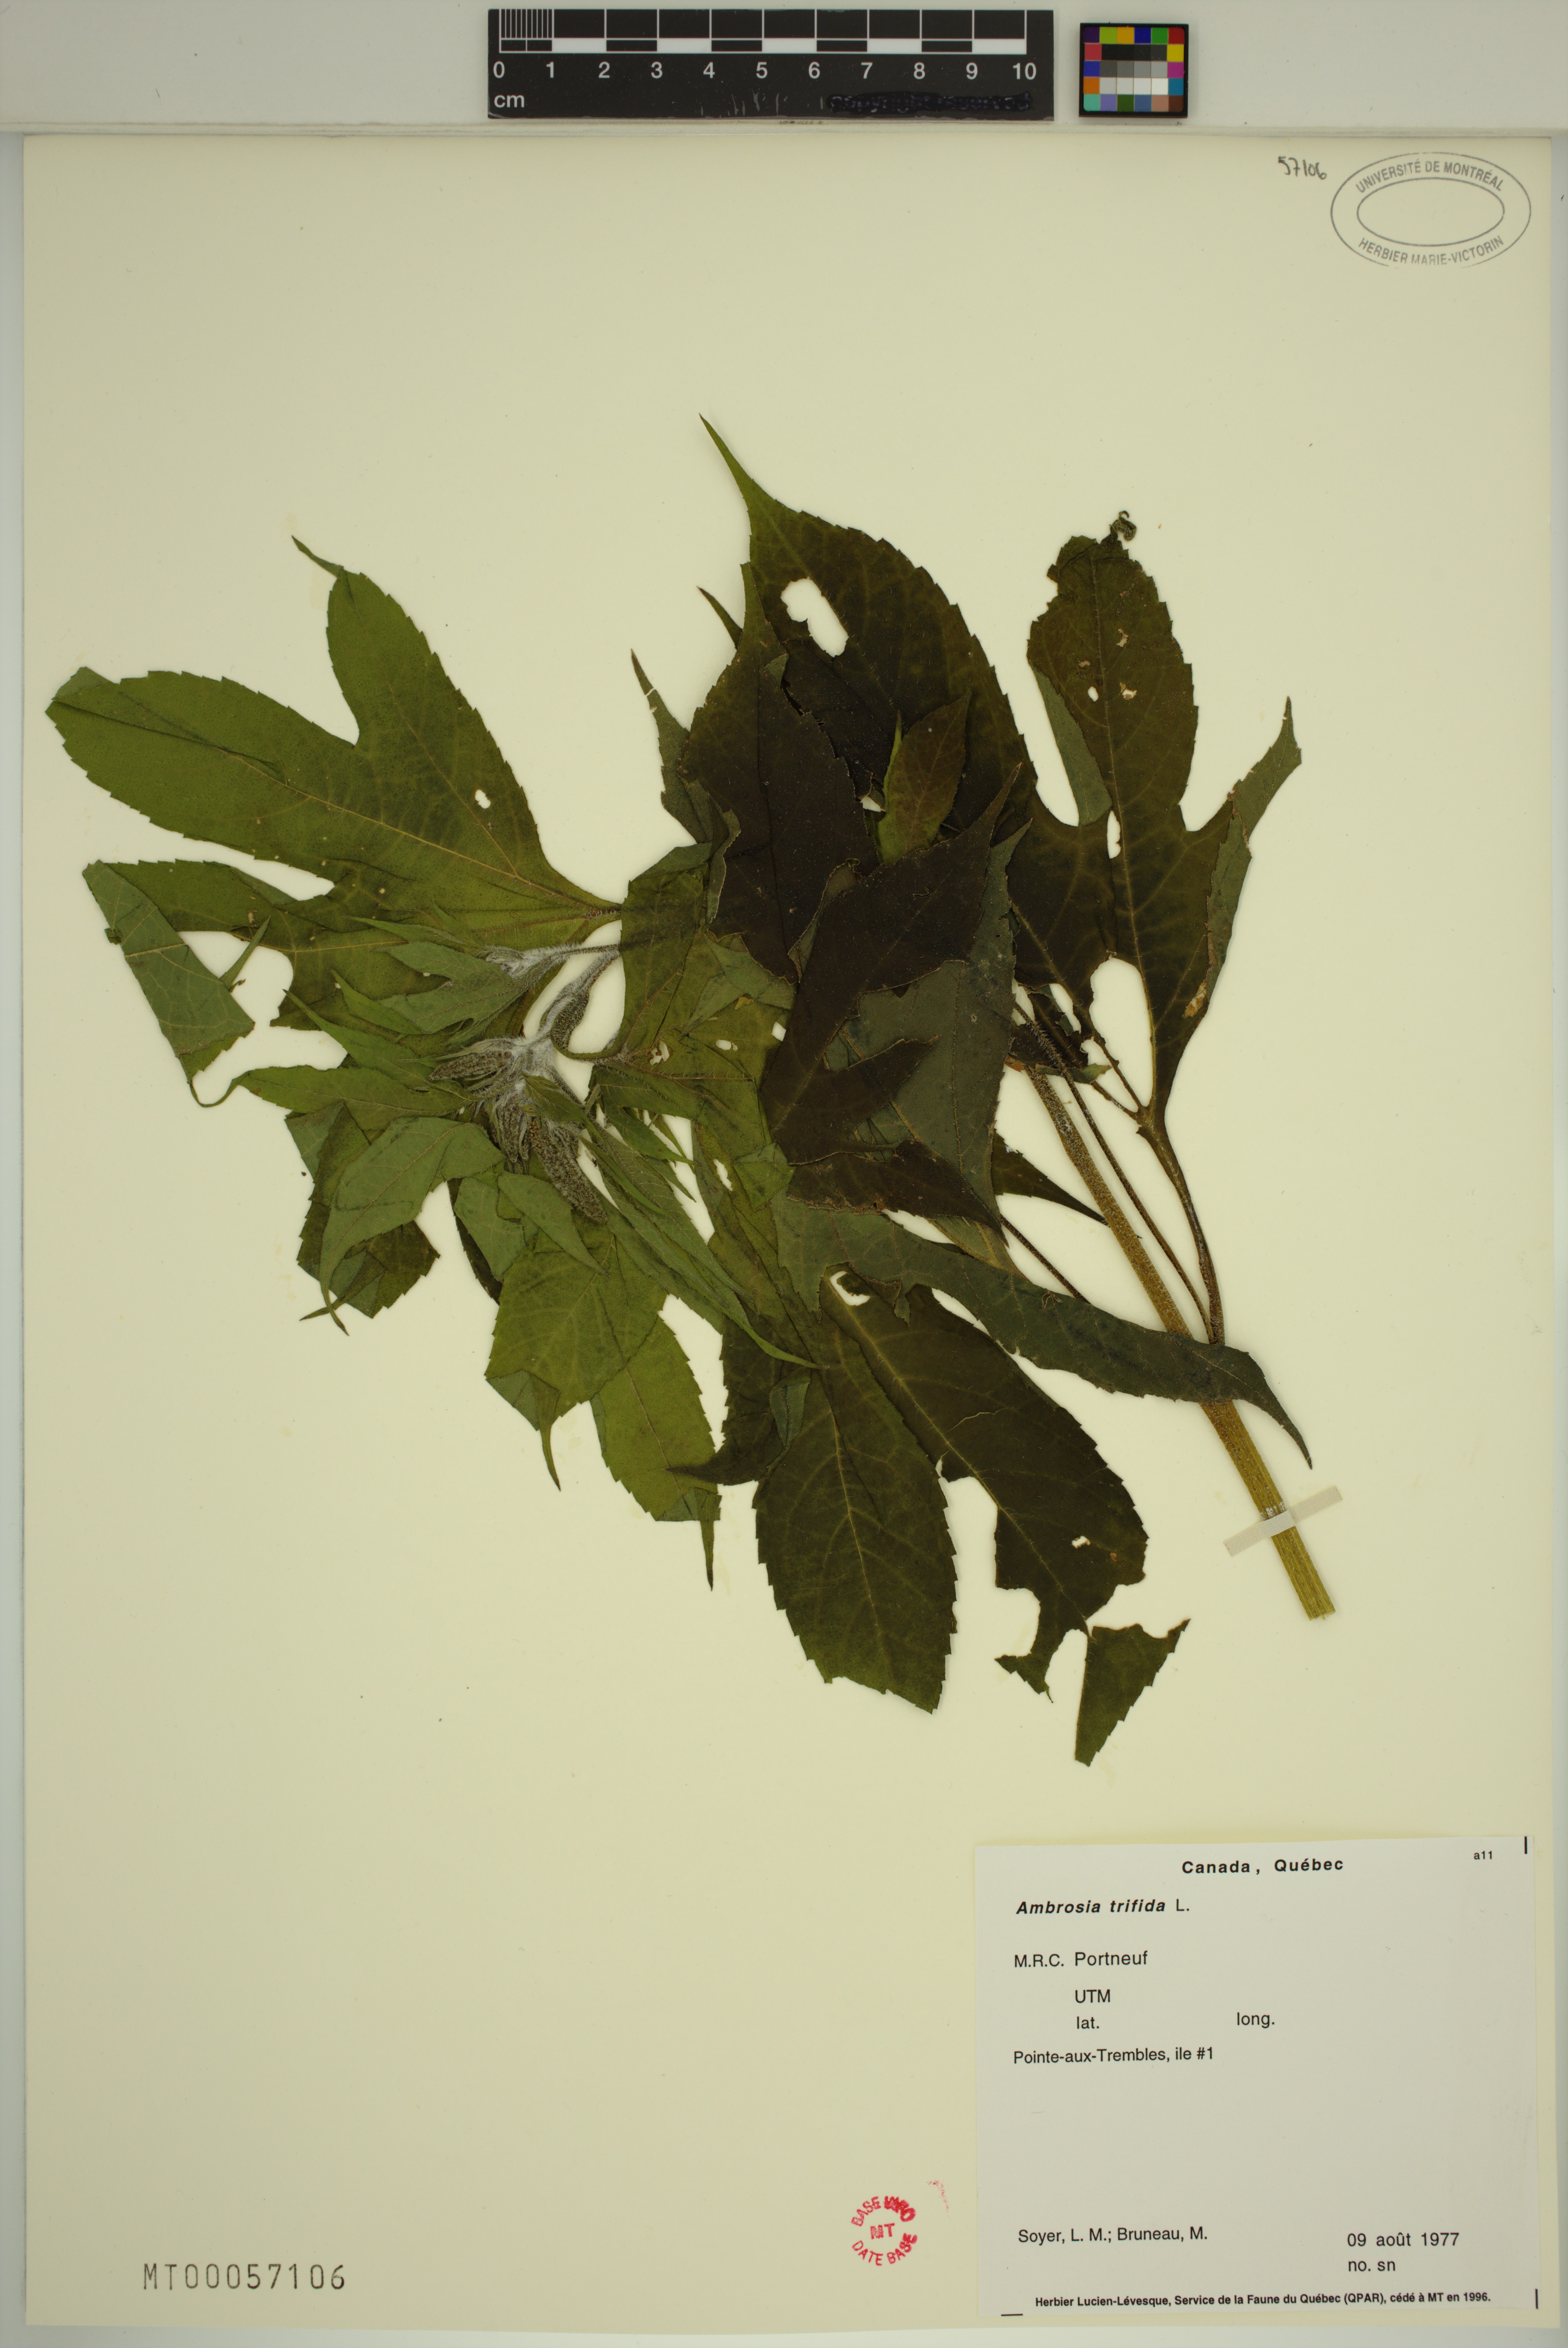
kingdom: Plantae
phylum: Tracheophyta
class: Magnoliopsida
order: Asterales
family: Asteraceae
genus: Ambrosia
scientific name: Ambrosia trifida
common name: Giant ragweed
